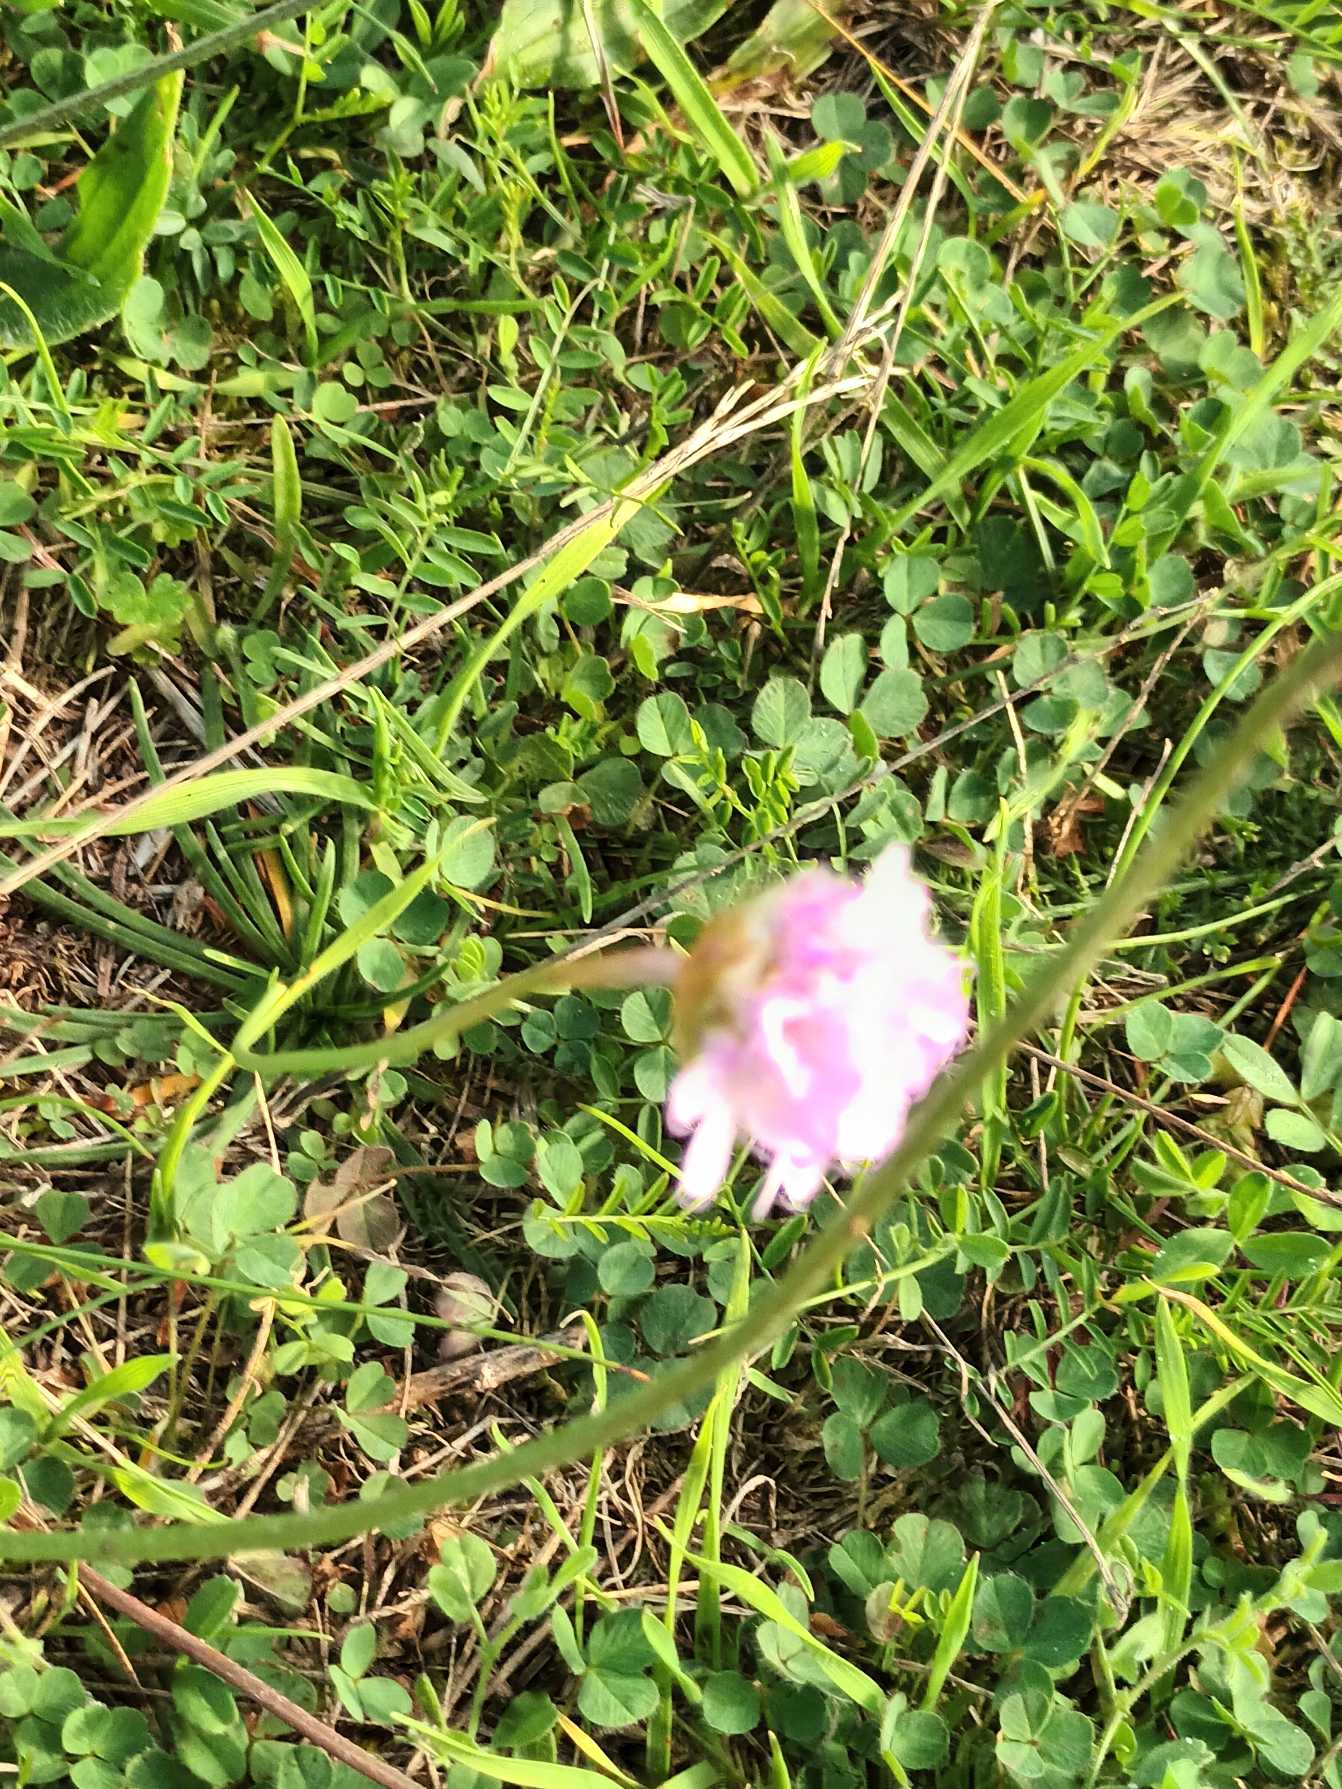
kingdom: Plantae
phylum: Tracheophyta
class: Magnoliopsida
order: Caryophyllales
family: Plumbaginaceae
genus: Armeria
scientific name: Armeria maritima
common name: Engelskgræs
